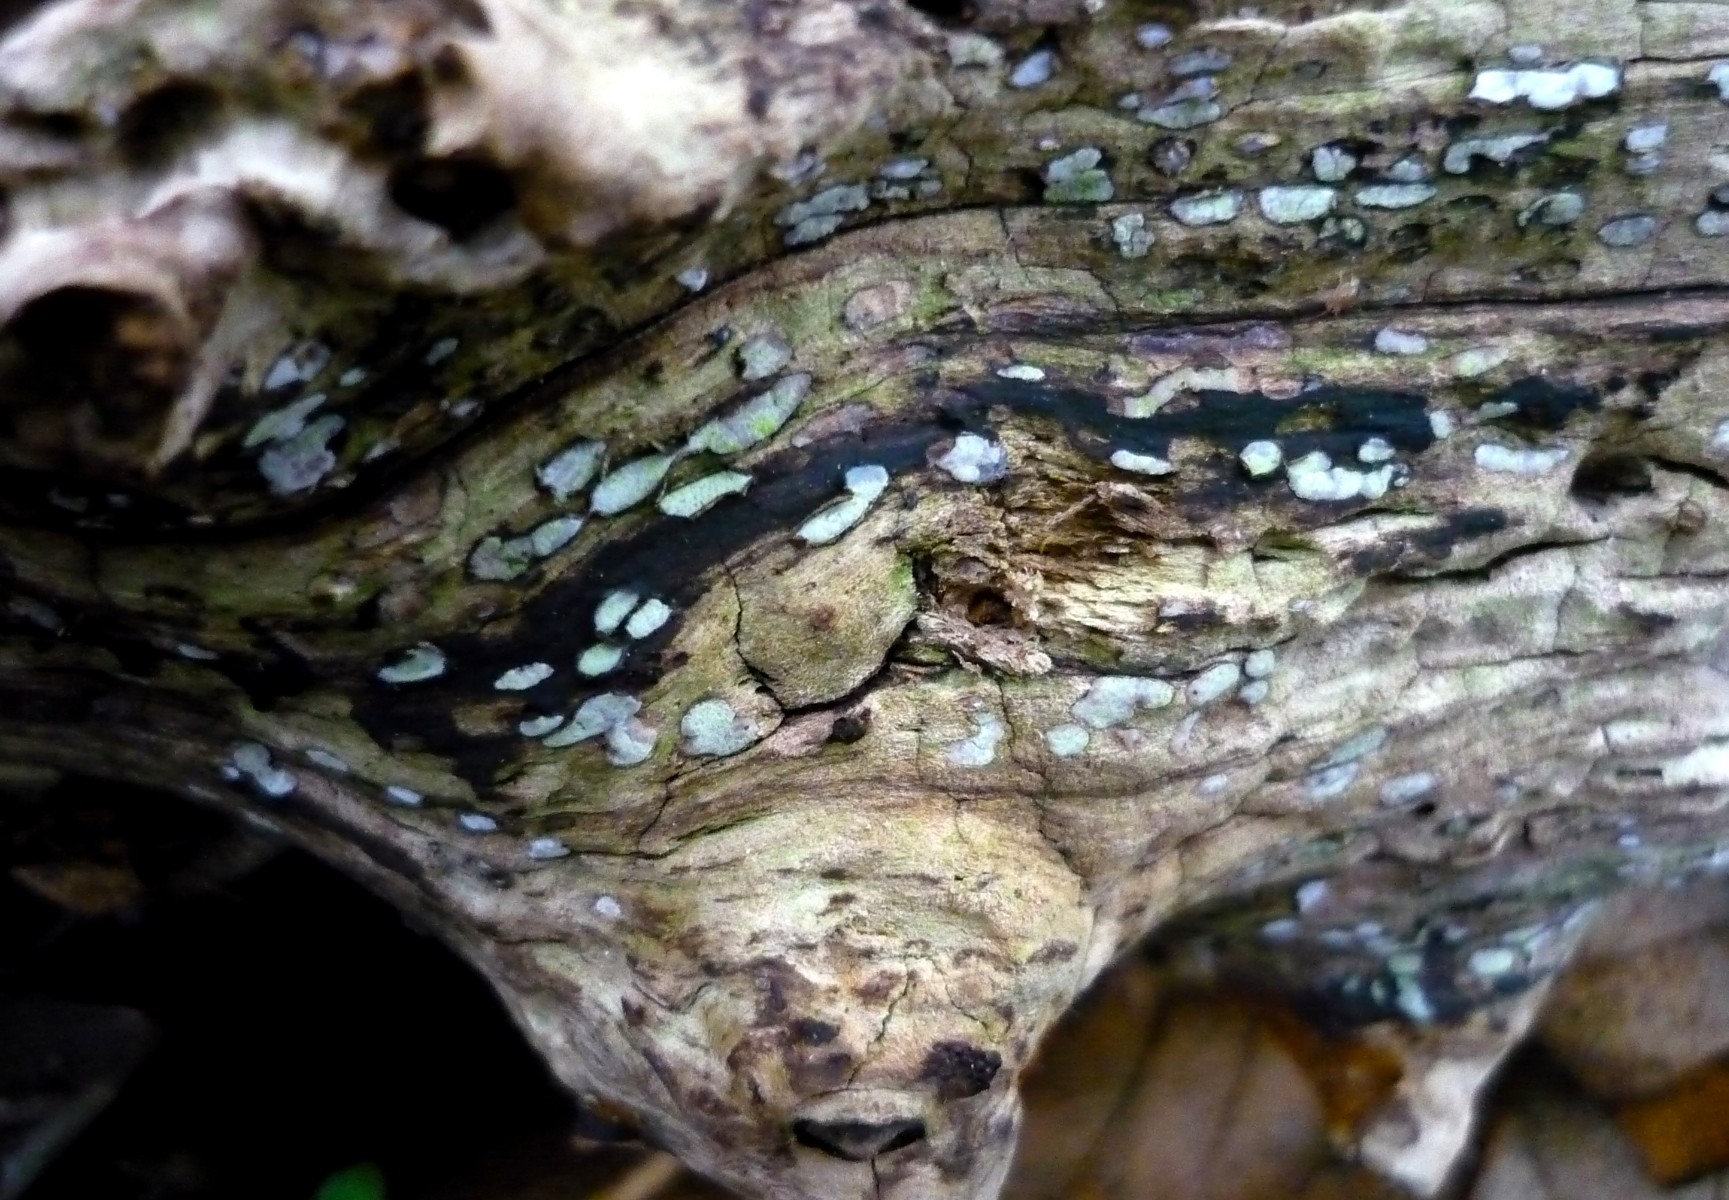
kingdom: Fungi
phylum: Ascomycota
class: Leotiomycetes
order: Chaetomellales
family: Marthamycetaceae
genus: Propolis
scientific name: Propolis farinosa
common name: almindelig vedsprængerskive
